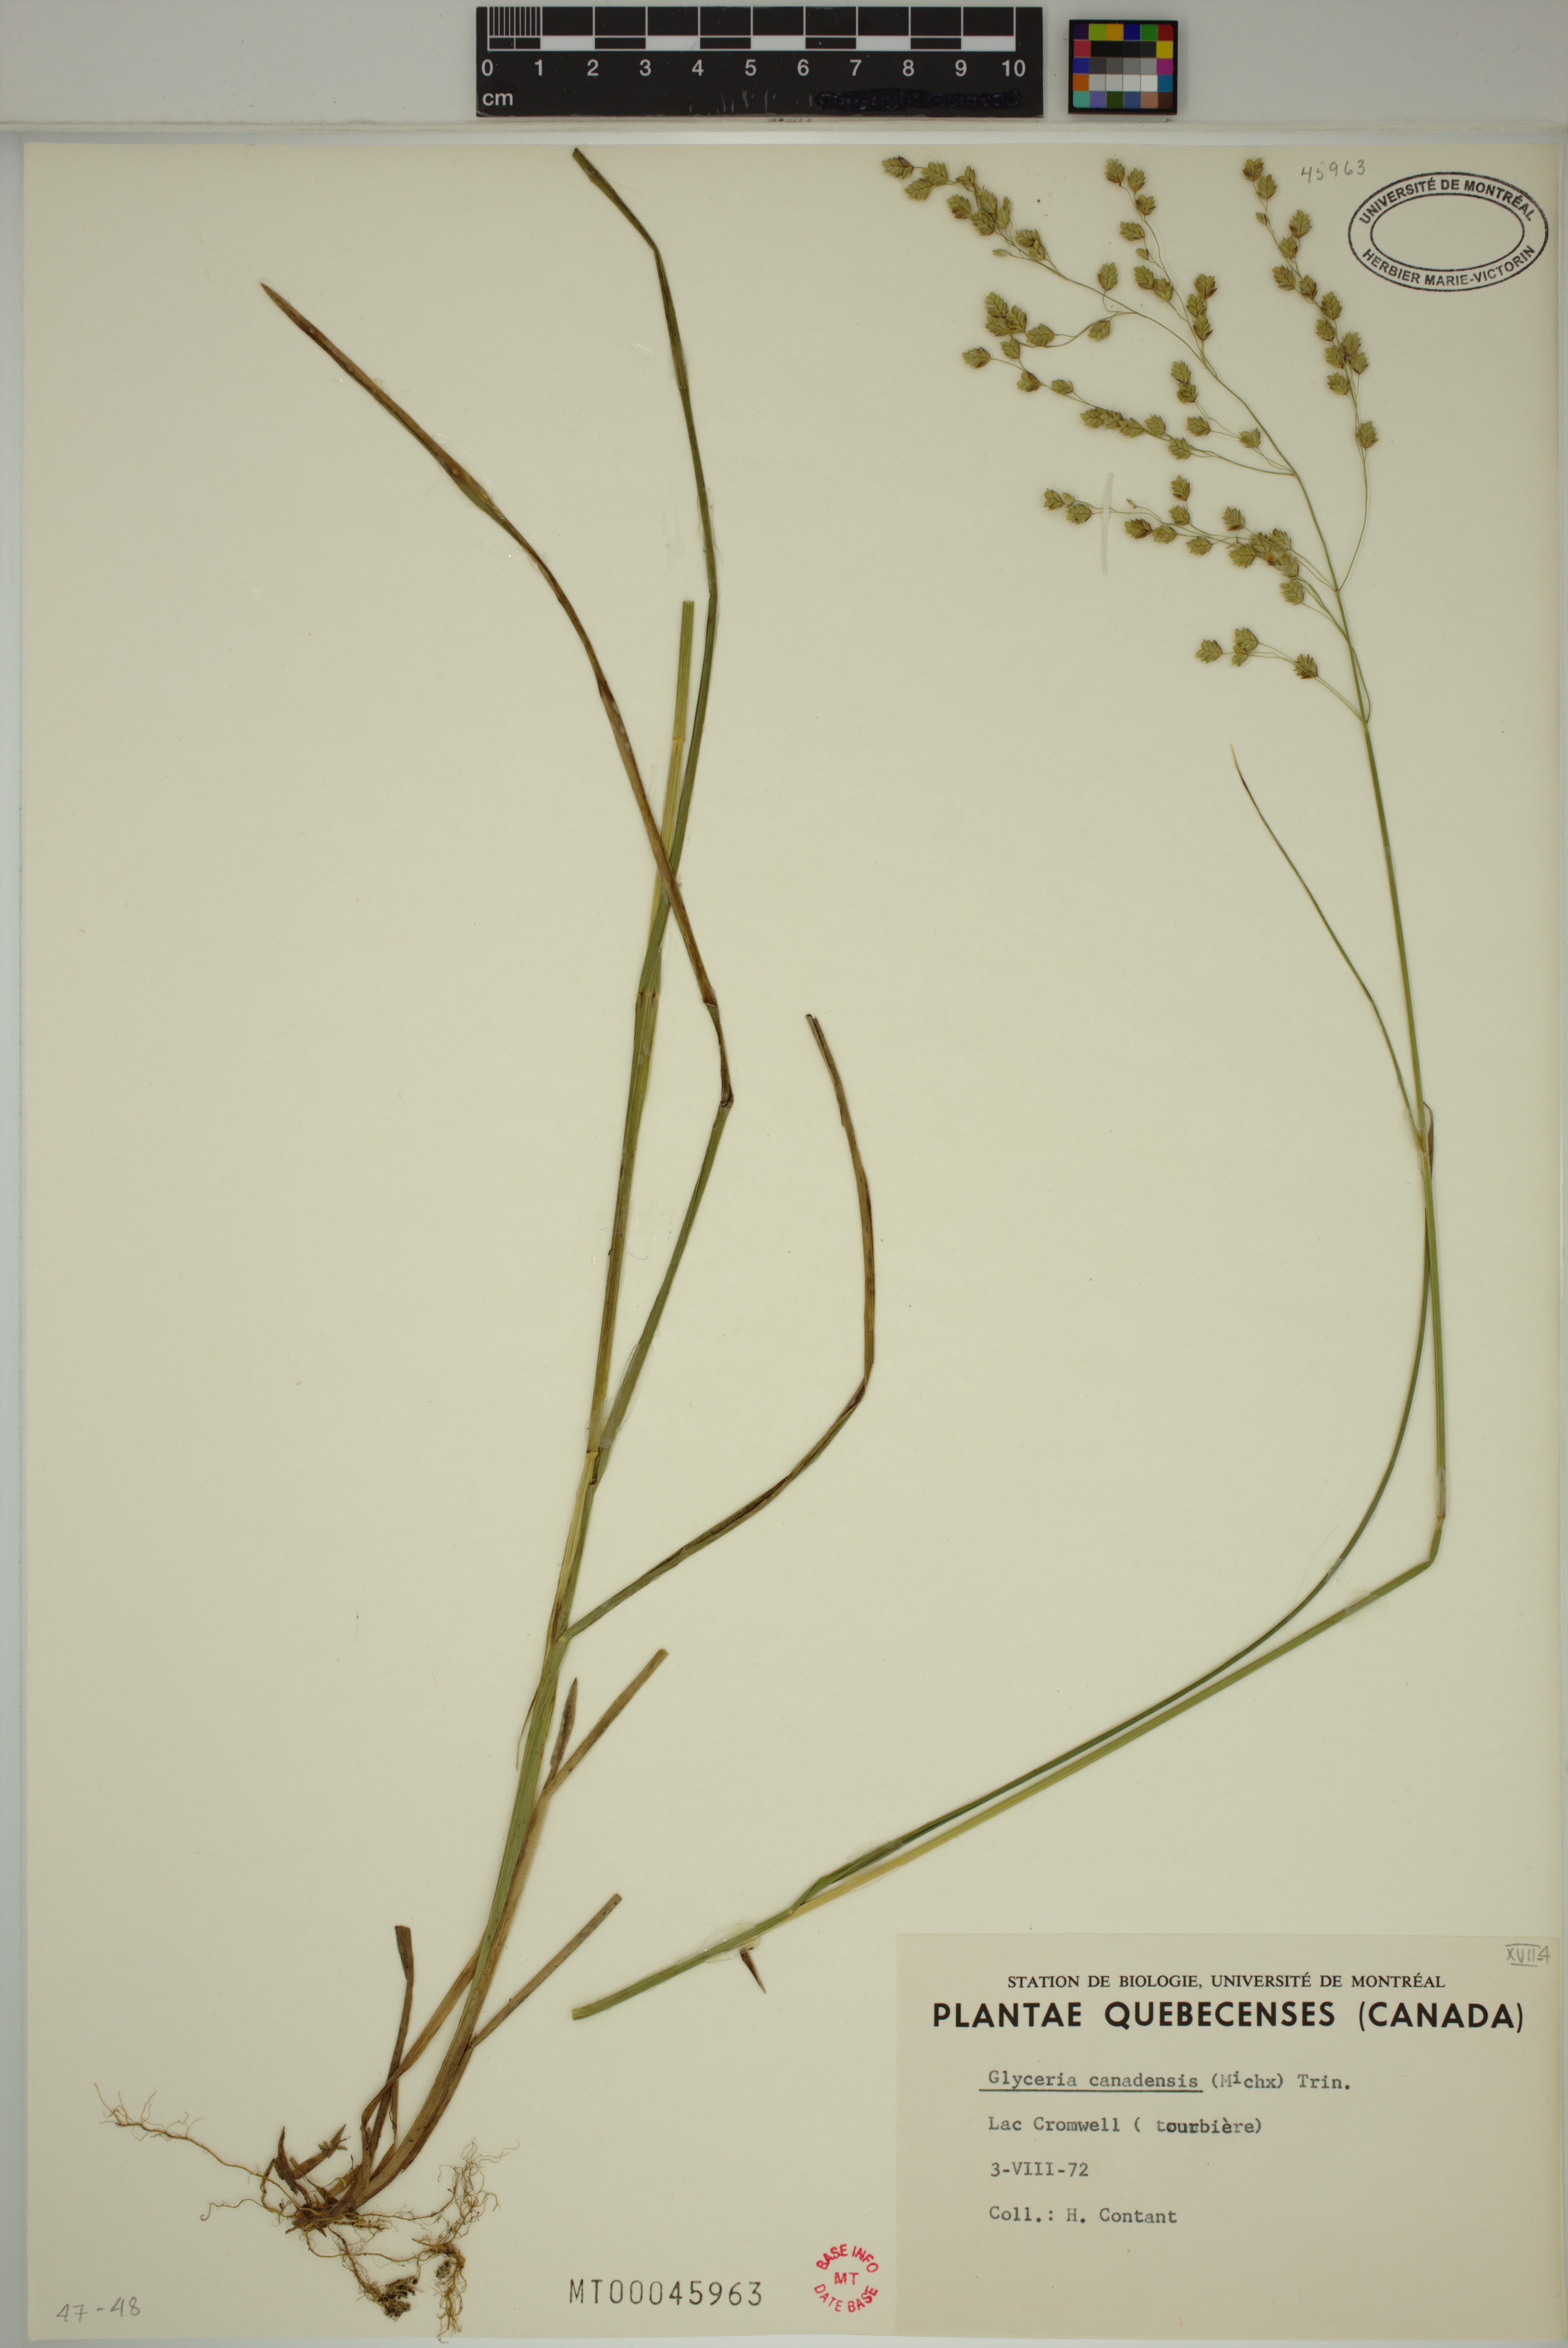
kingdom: Plantae
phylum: Tracheophyta
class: Liliopsida
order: Poales
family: Poaceae
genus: Glyceria
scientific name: Glyceria canadensis
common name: Canada mannagrass
